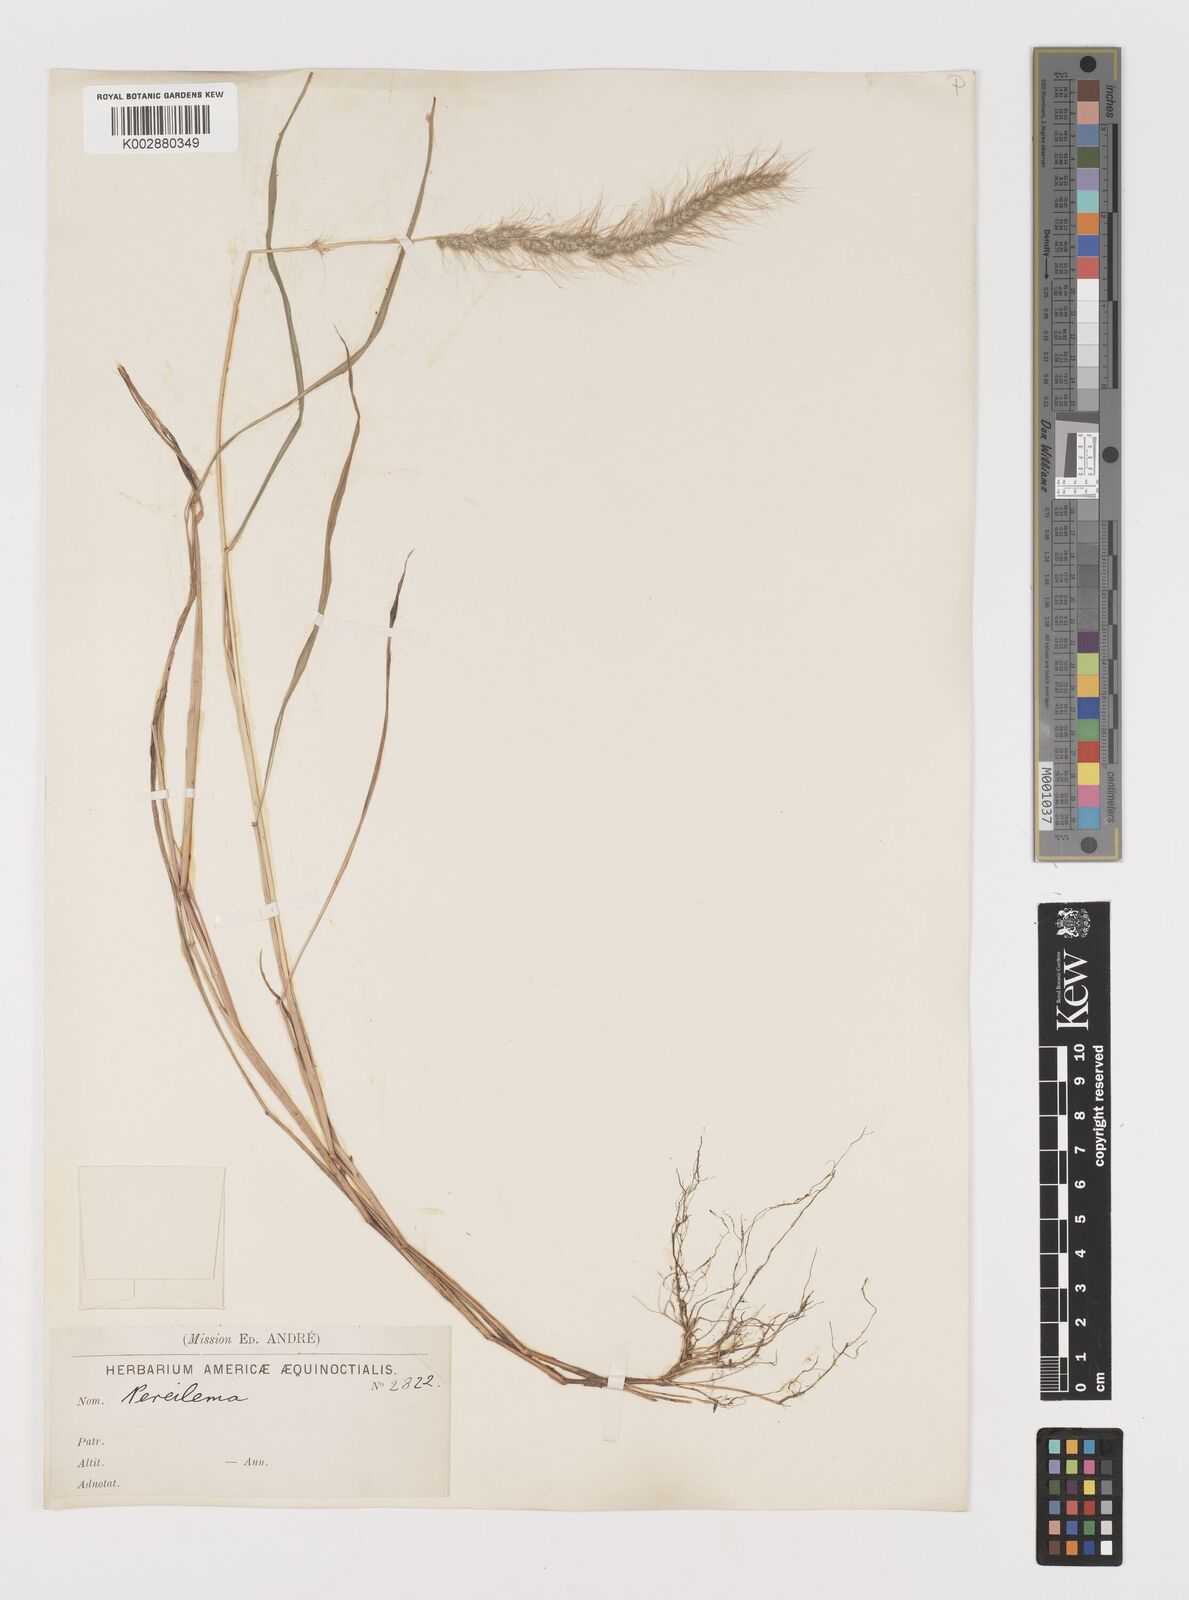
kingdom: Plantae
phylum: Tracheophyta
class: Liliopsida
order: Poales
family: Poaceae
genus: Muhlenbergia
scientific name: Muhlenbergia pereilema
